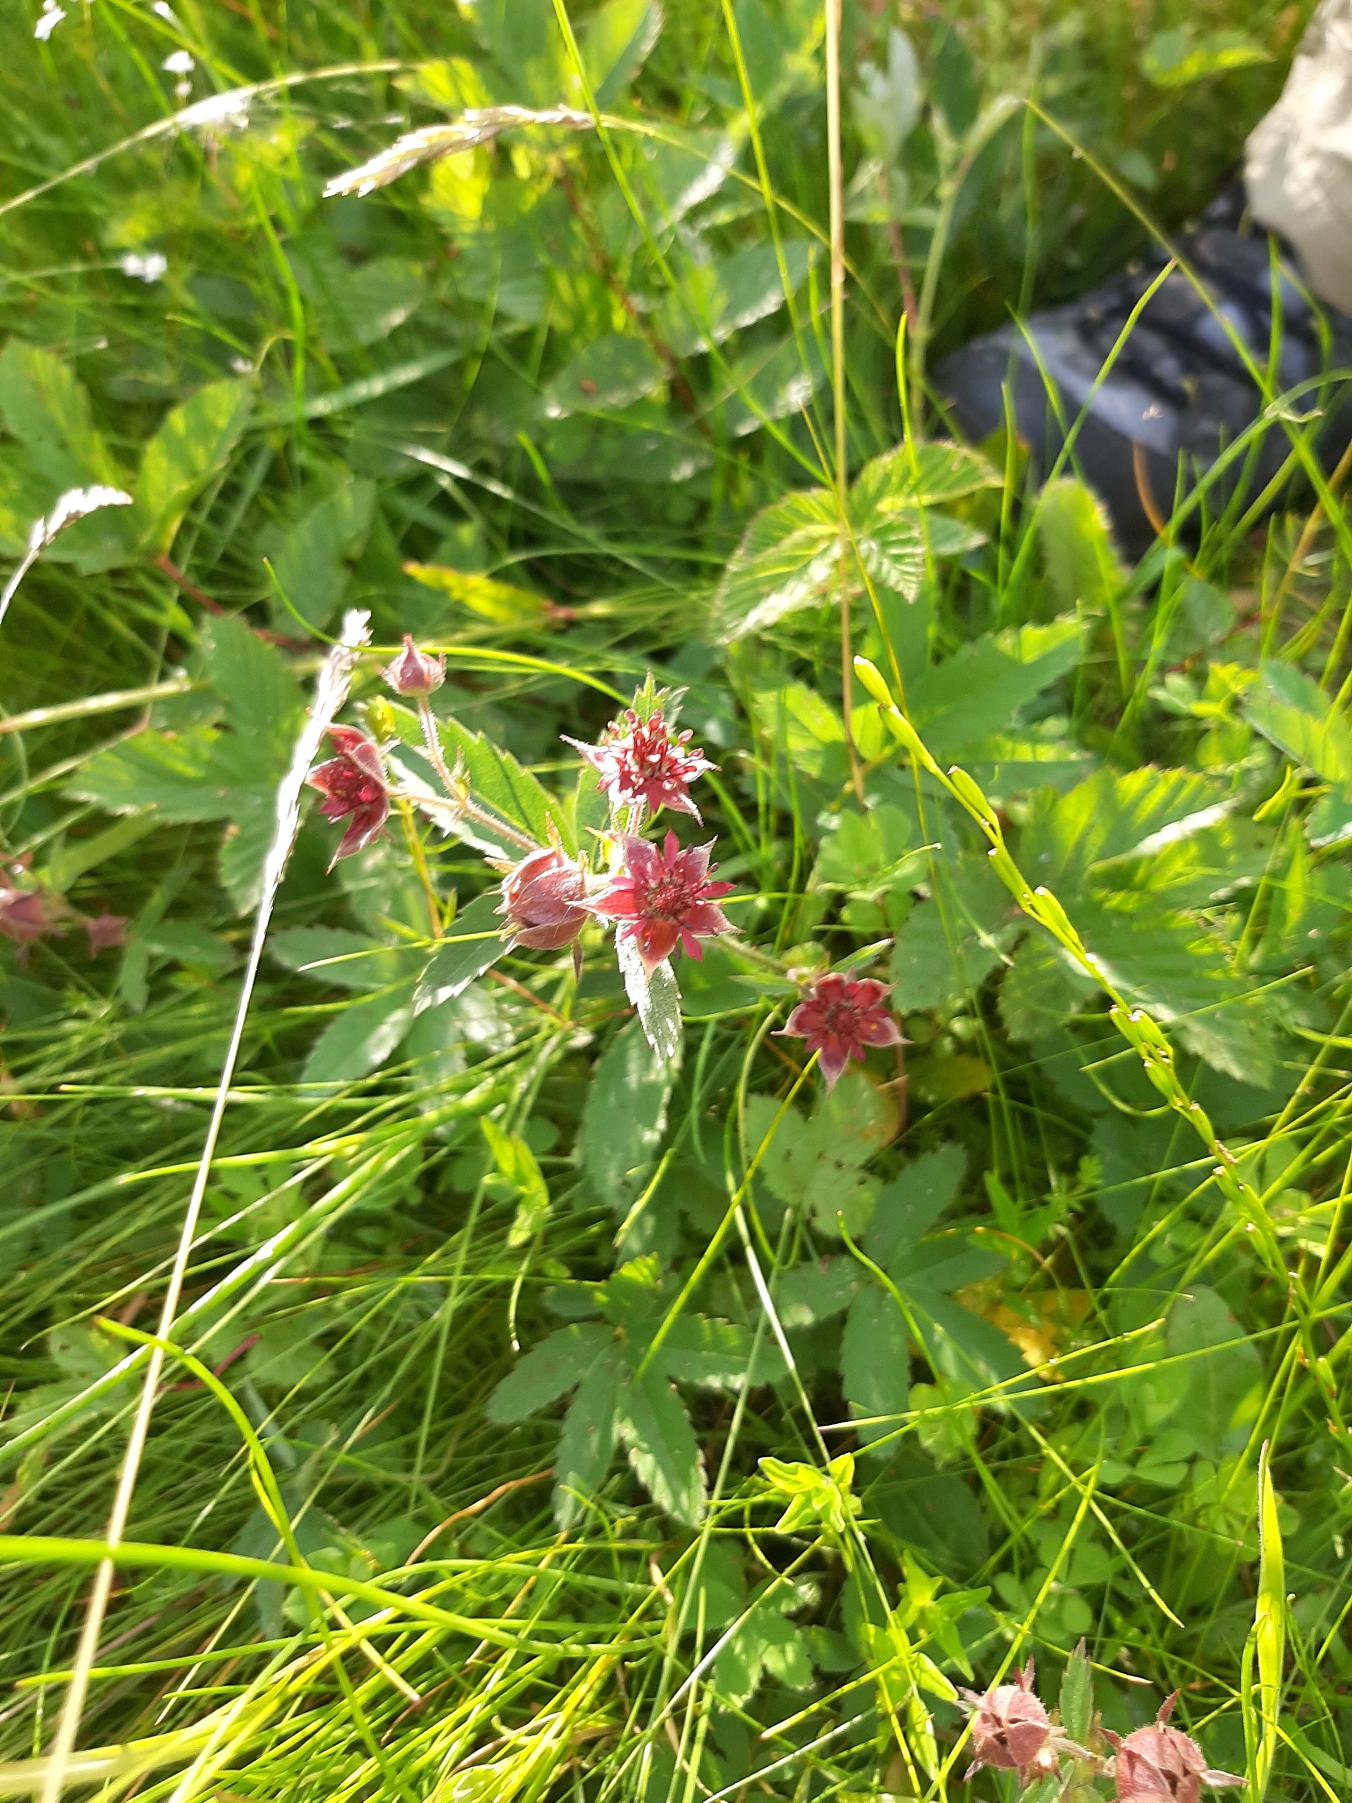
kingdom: Plantae
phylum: Tracheophyta
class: Magnoliopsida
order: Rosales
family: Rosaceae
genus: Comarum
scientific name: Comarum palustre
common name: Kragefod
